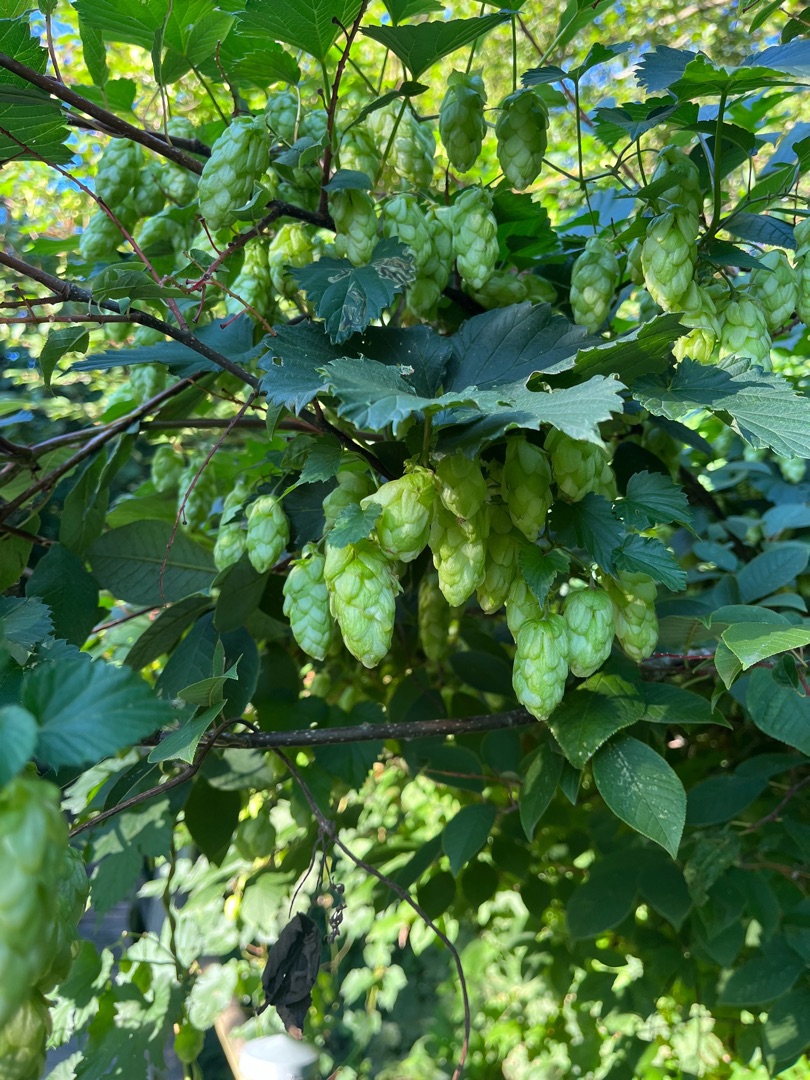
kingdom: Plantae
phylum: Tracheophyta
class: Magnoliopsida
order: Rosales
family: Cannabaceae
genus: Humulus
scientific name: Humulus lupulus
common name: Humle
